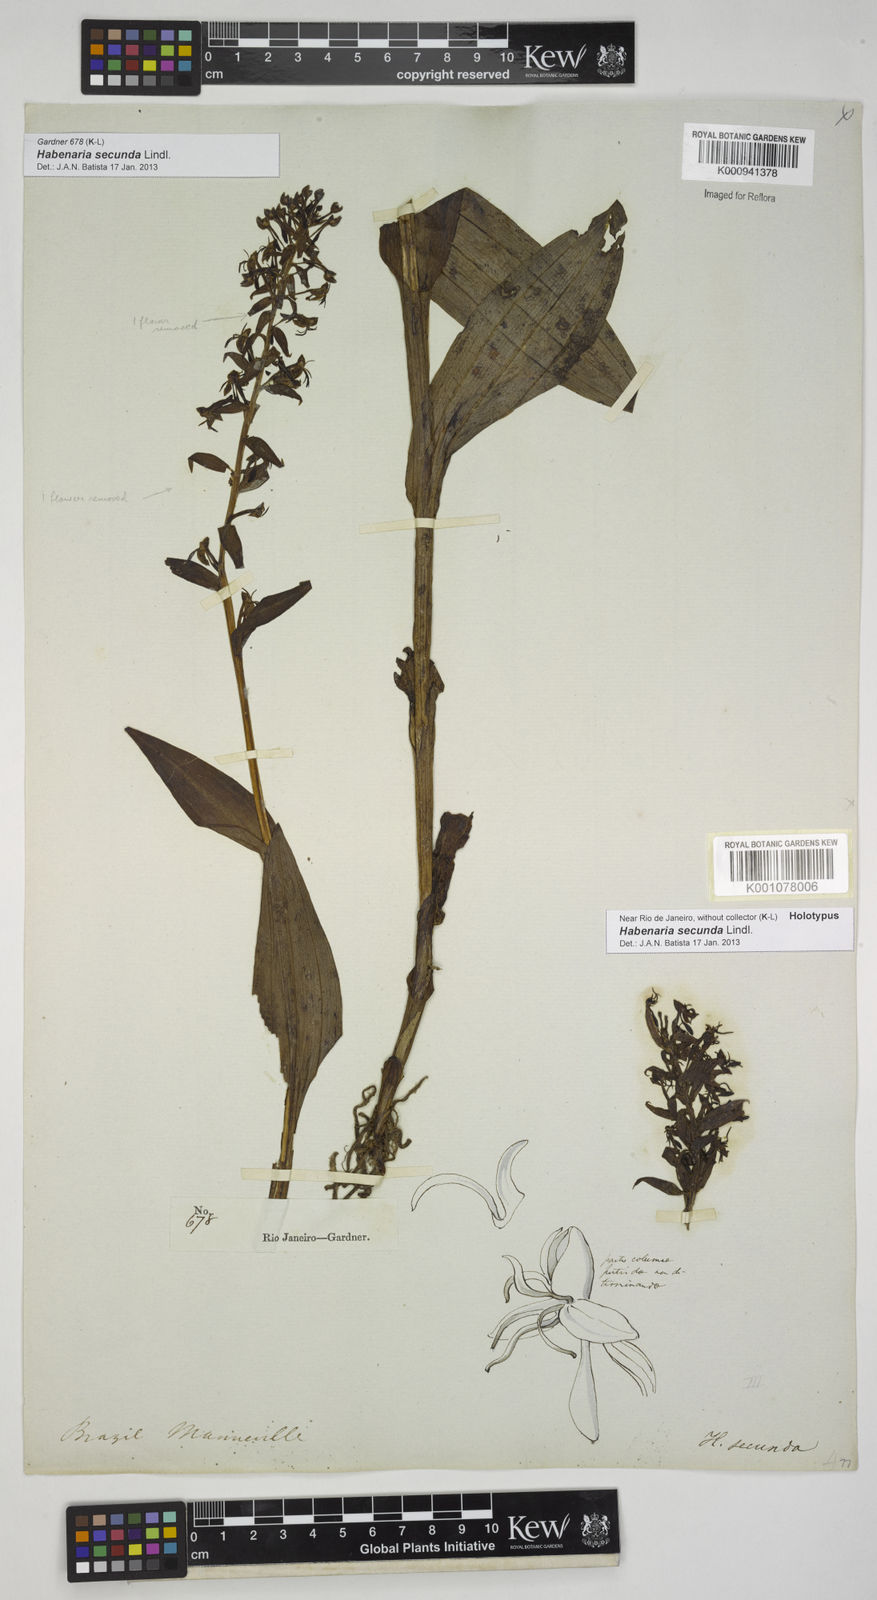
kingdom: Plantae
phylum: Tracheophyta
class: Liliopsida
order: Asparagales
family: Orchidaceae
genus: Habenaria
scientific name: Habenaria secunda
